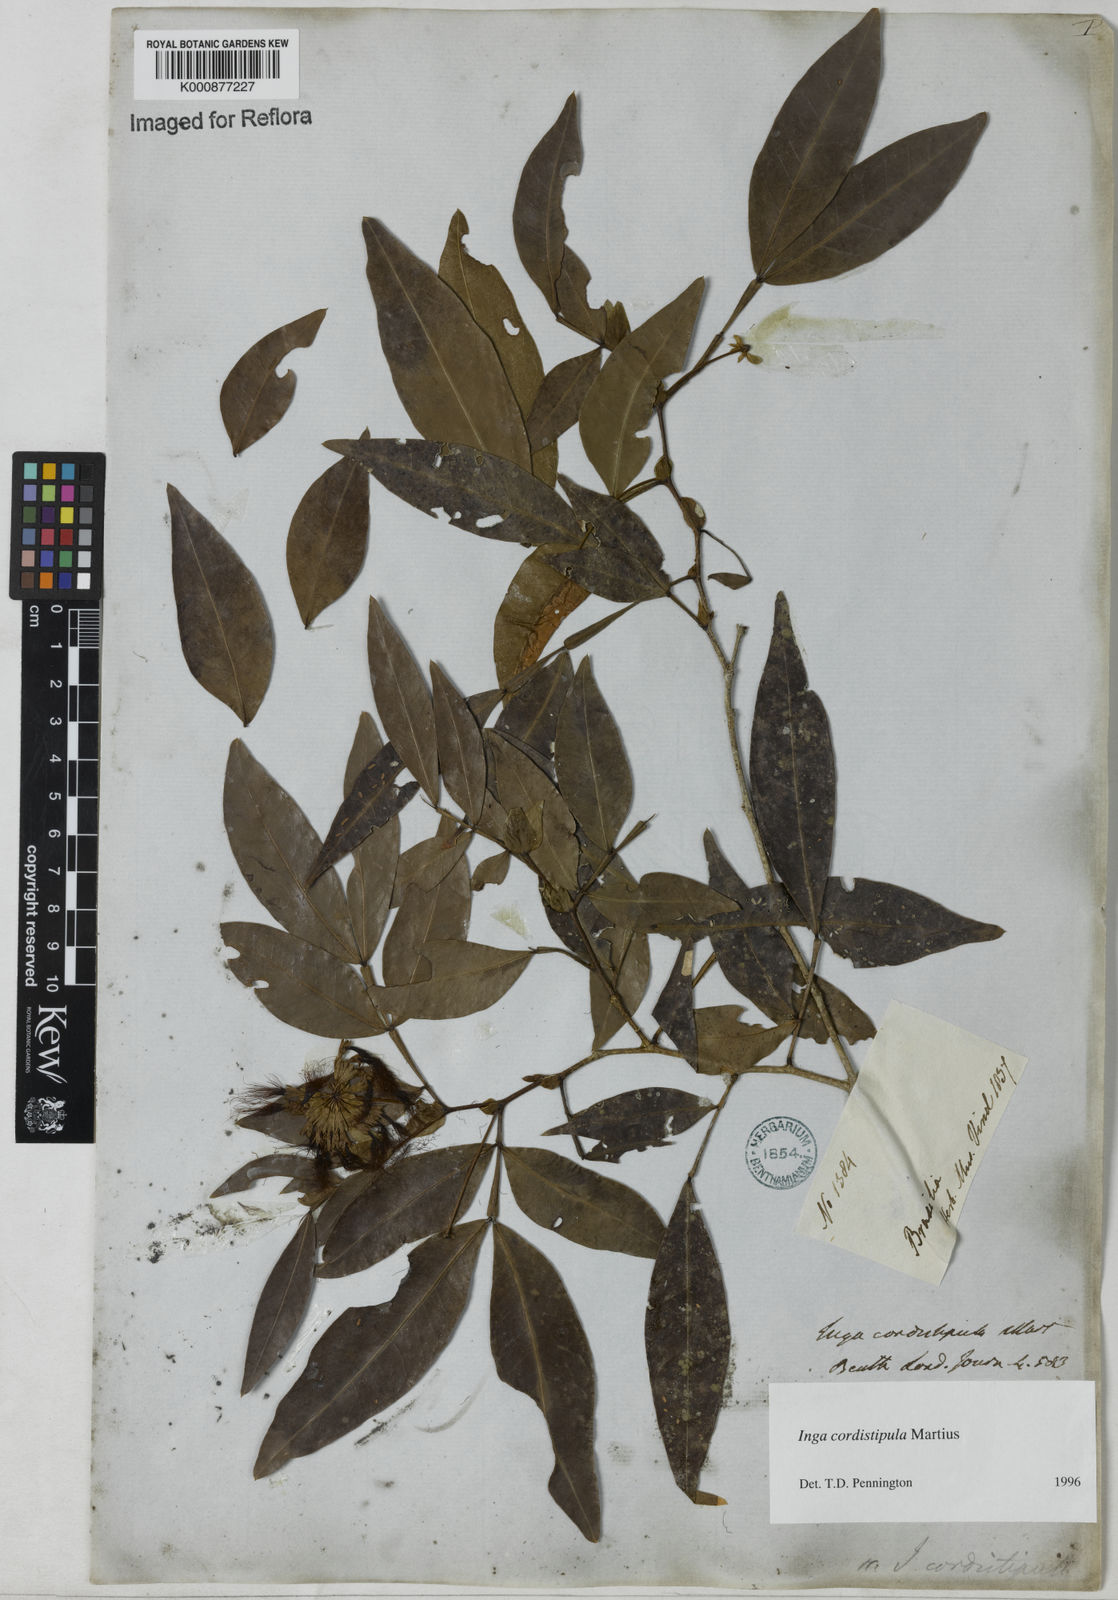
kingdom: Plantae
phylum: Tracheophyta
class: Magnoliopsida
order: Fabales
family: Fabaceae
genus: Inga
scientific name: Inga cordistipula
